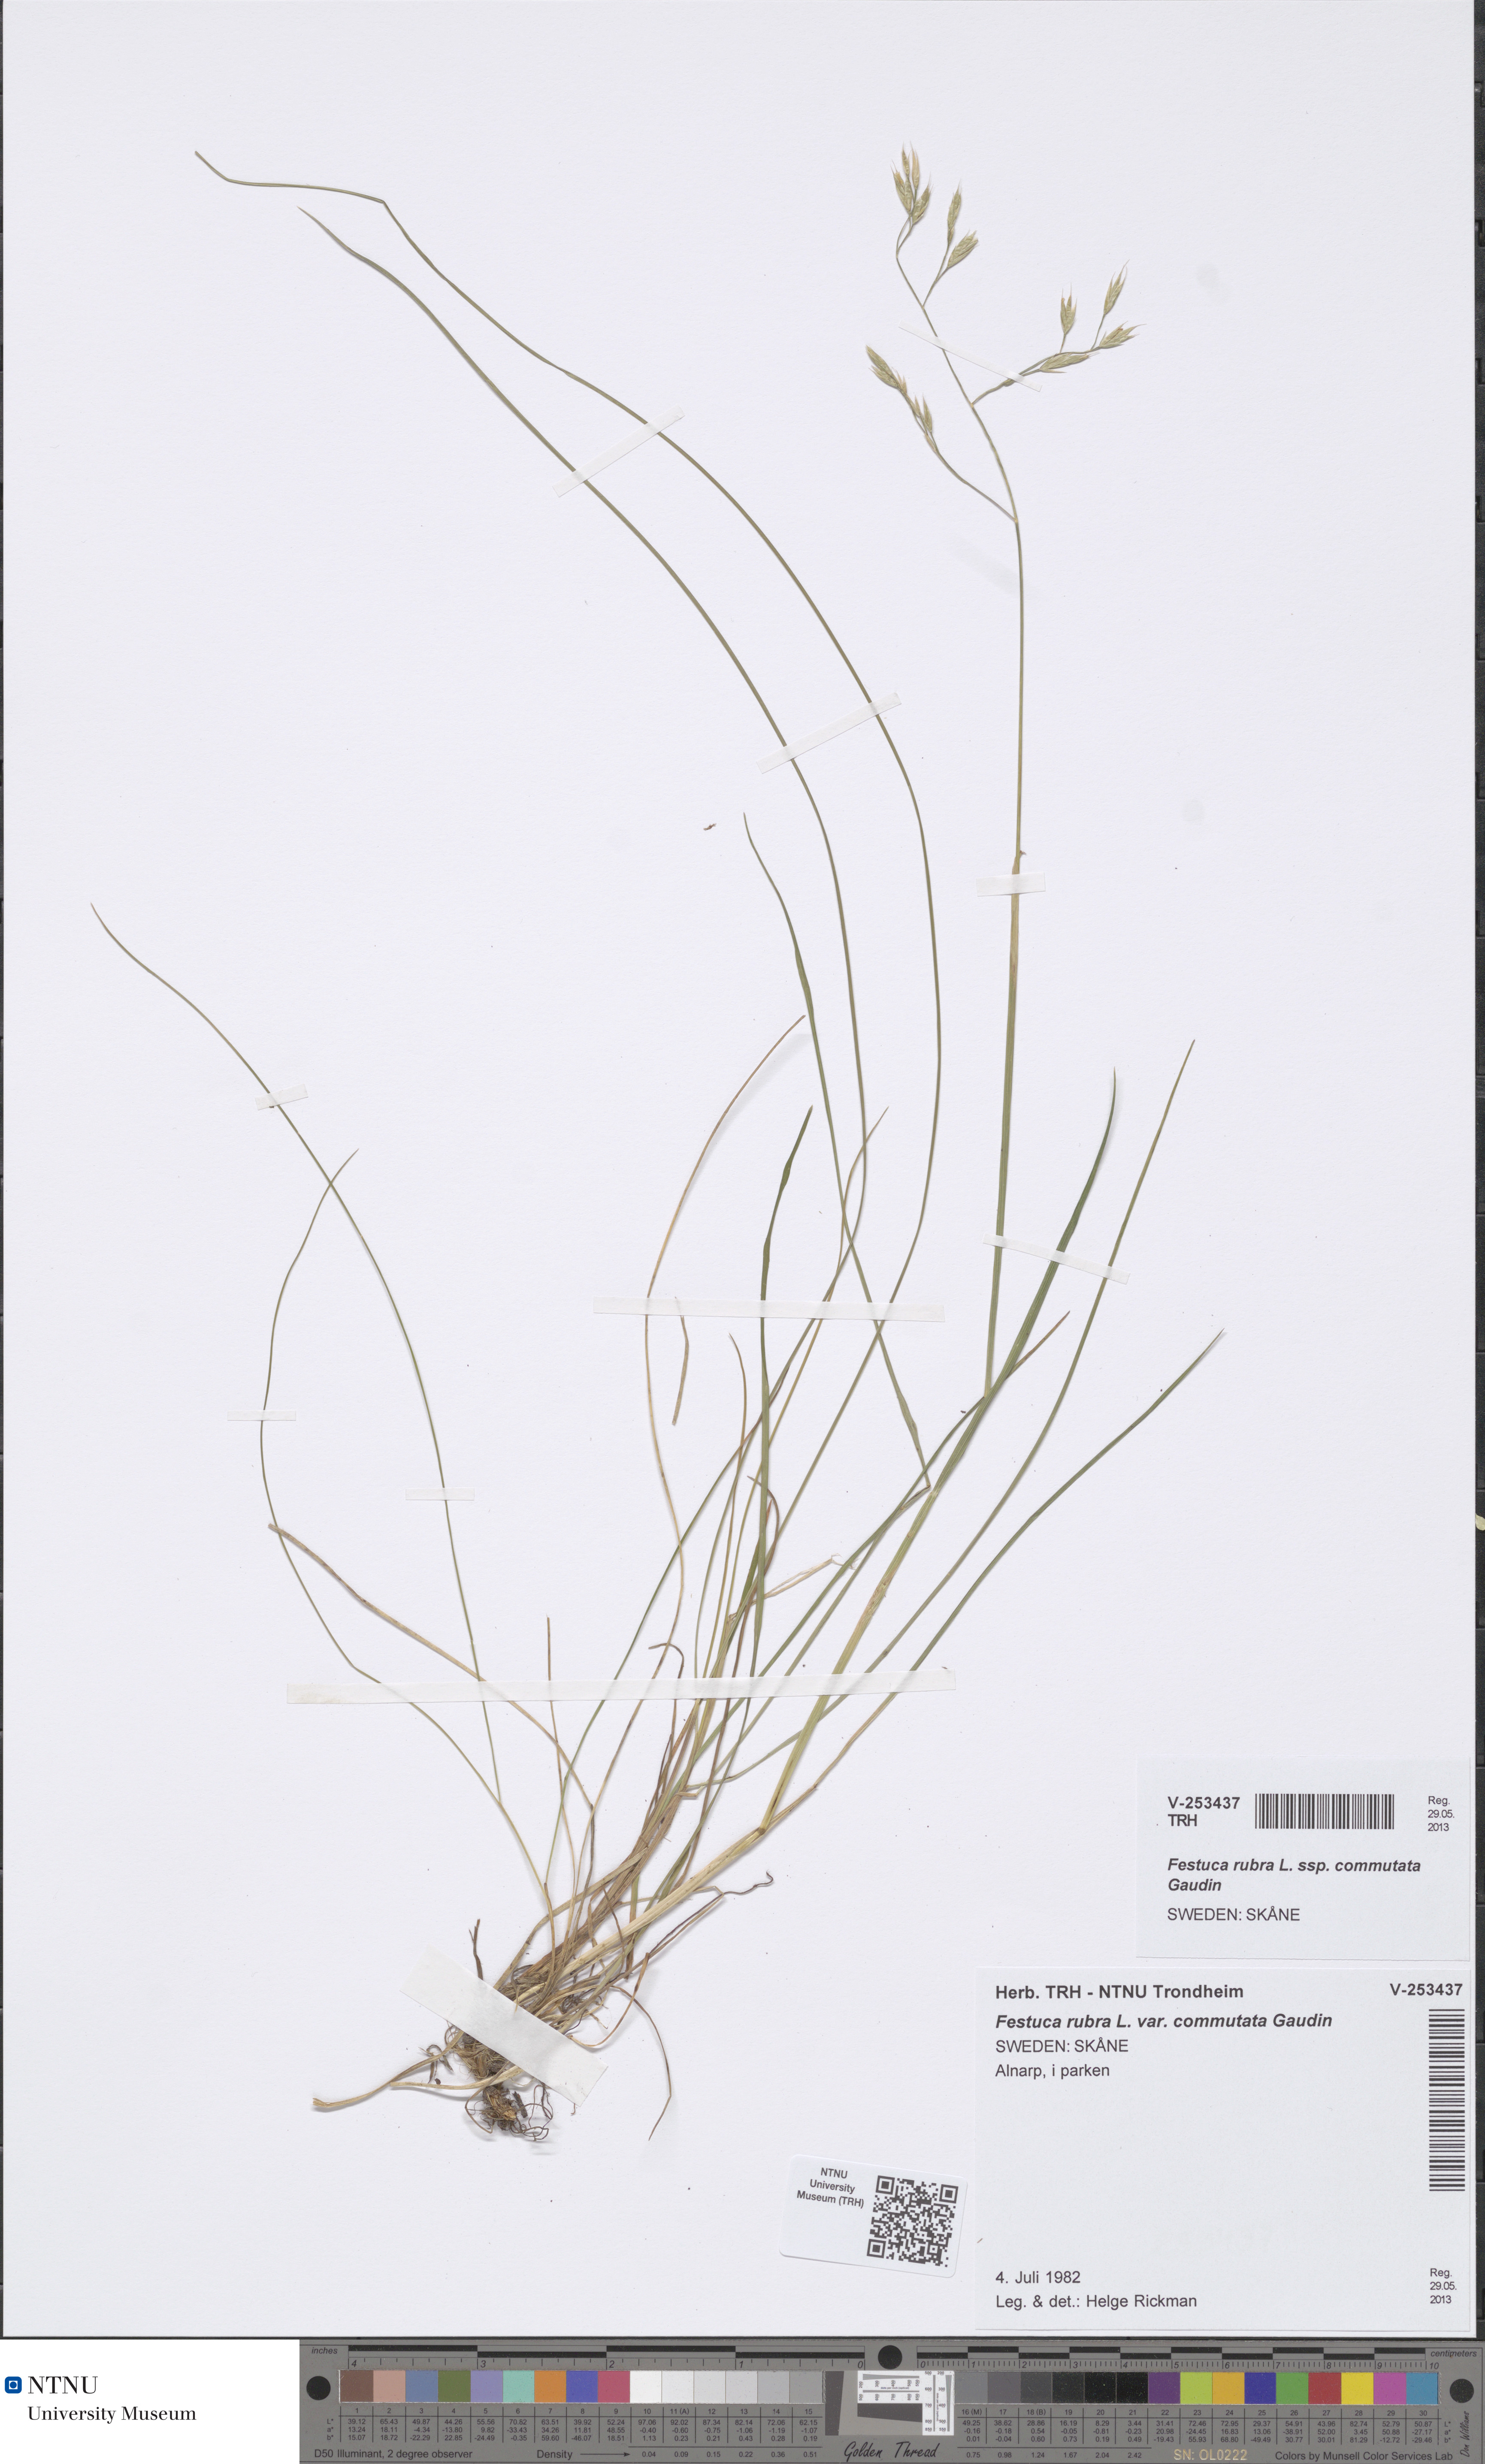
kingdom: Plantae
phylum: Tracheophyta
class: Liliopsida
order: Poales
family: Poaceae
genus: Festuca
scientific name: Festuca rubra
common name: Red fescue
